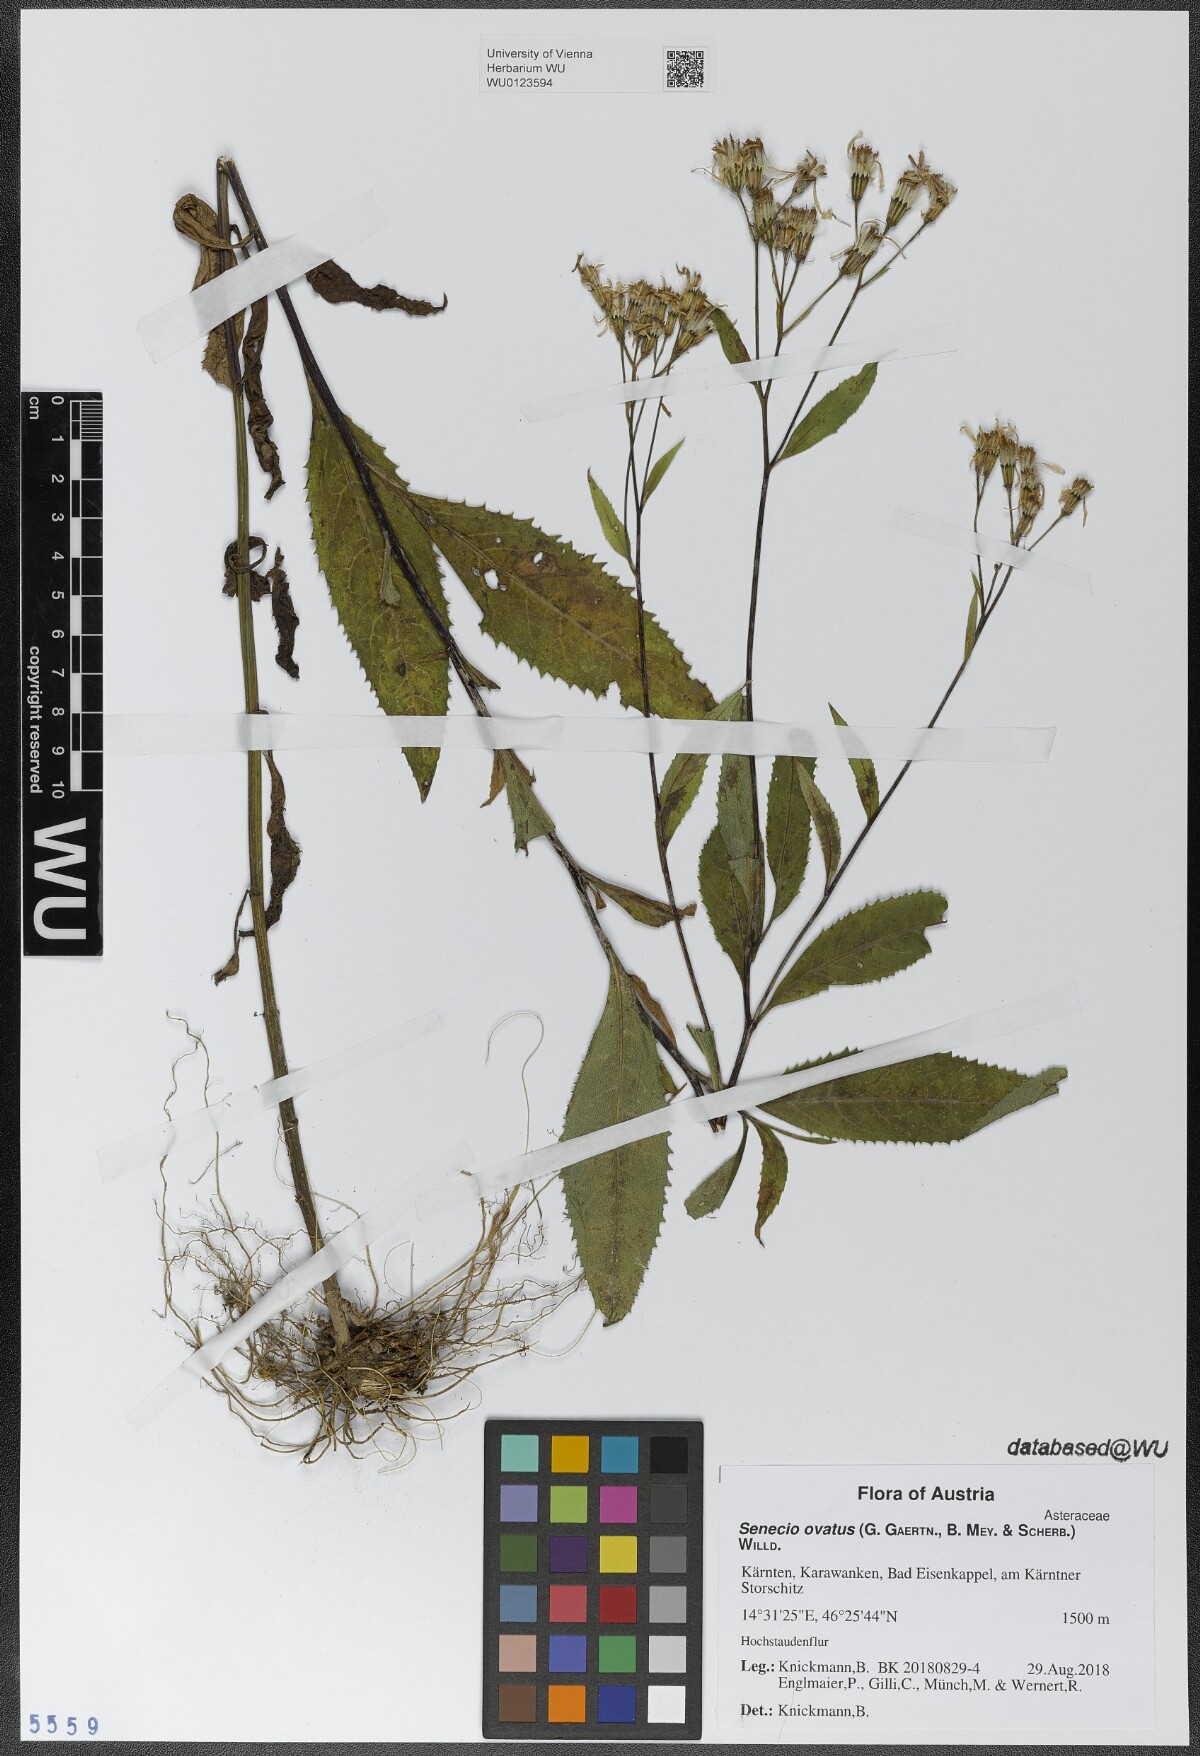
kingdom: Plantae
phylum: Tracheophyta
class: Magnoliopsida
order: Asterales
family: Asteraceae
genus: Senecio
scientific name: Senecio ovatus
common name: Wood ragwort
